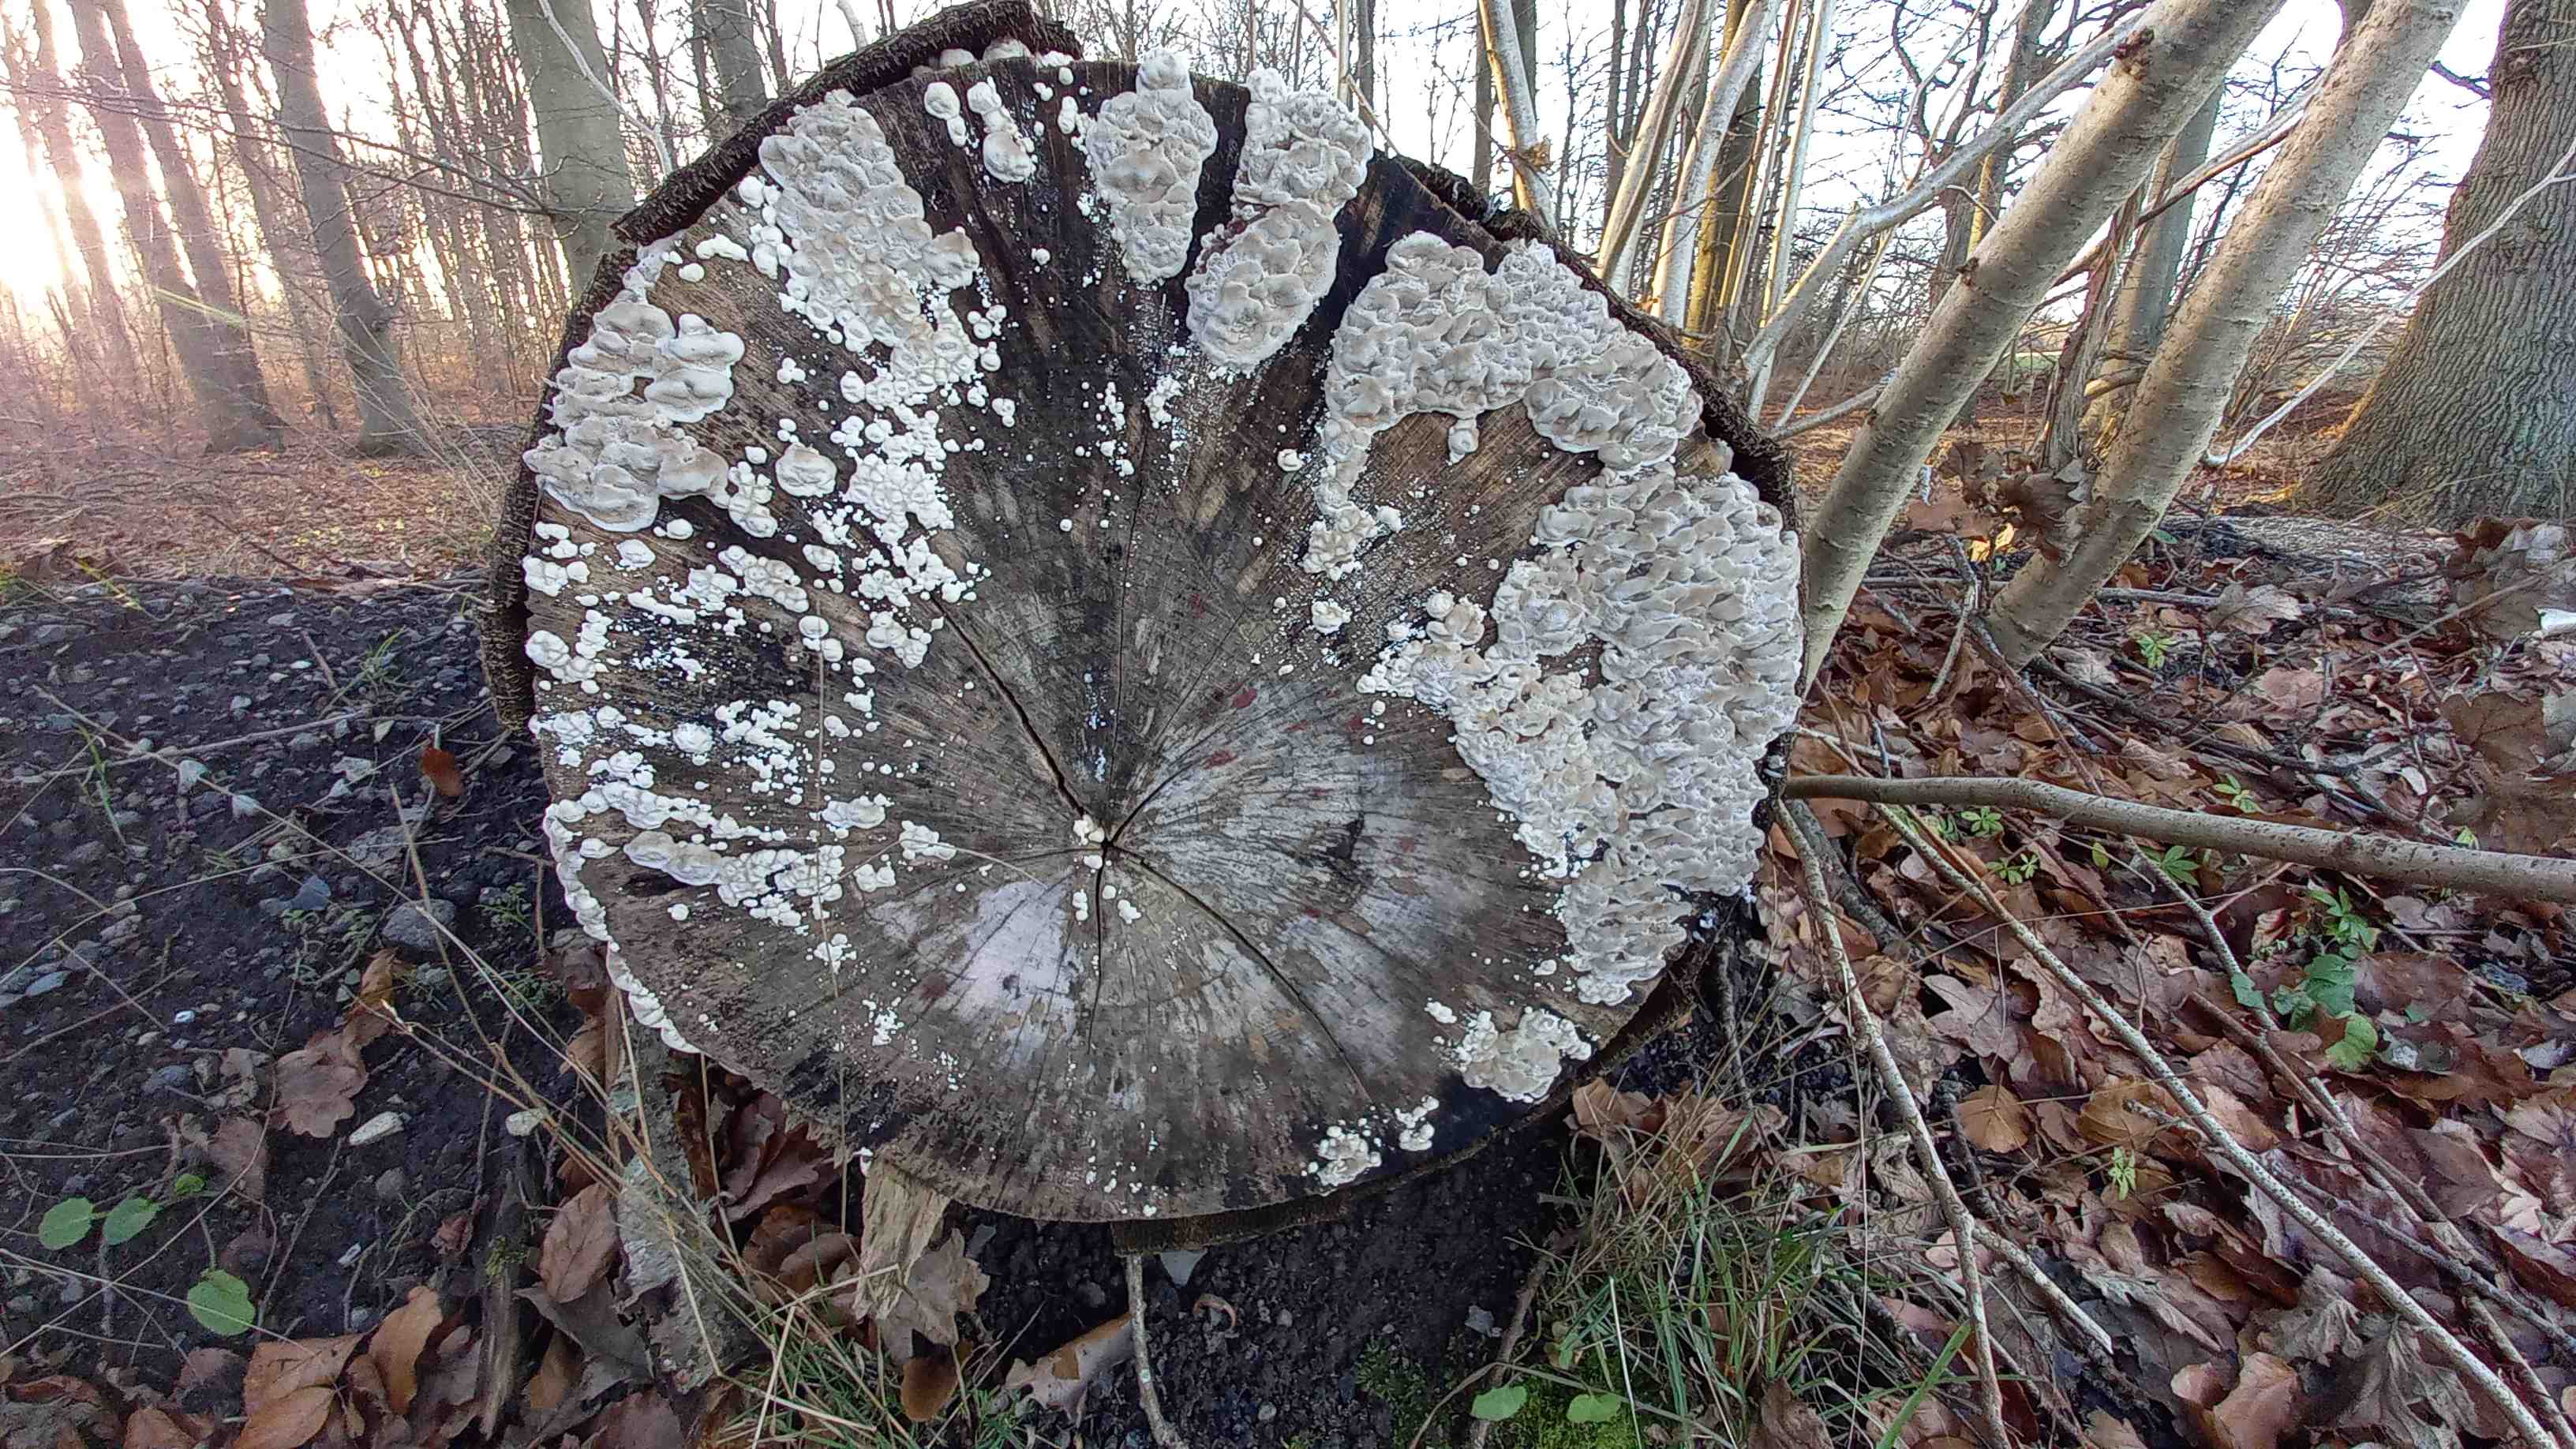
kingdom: Fungi
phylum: Basidiomycota
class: Agaricomycetes
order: Polyporales
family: Polyporaceae
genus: Trametes
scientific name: Trametes versicolor
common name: broget læderporesvamp
